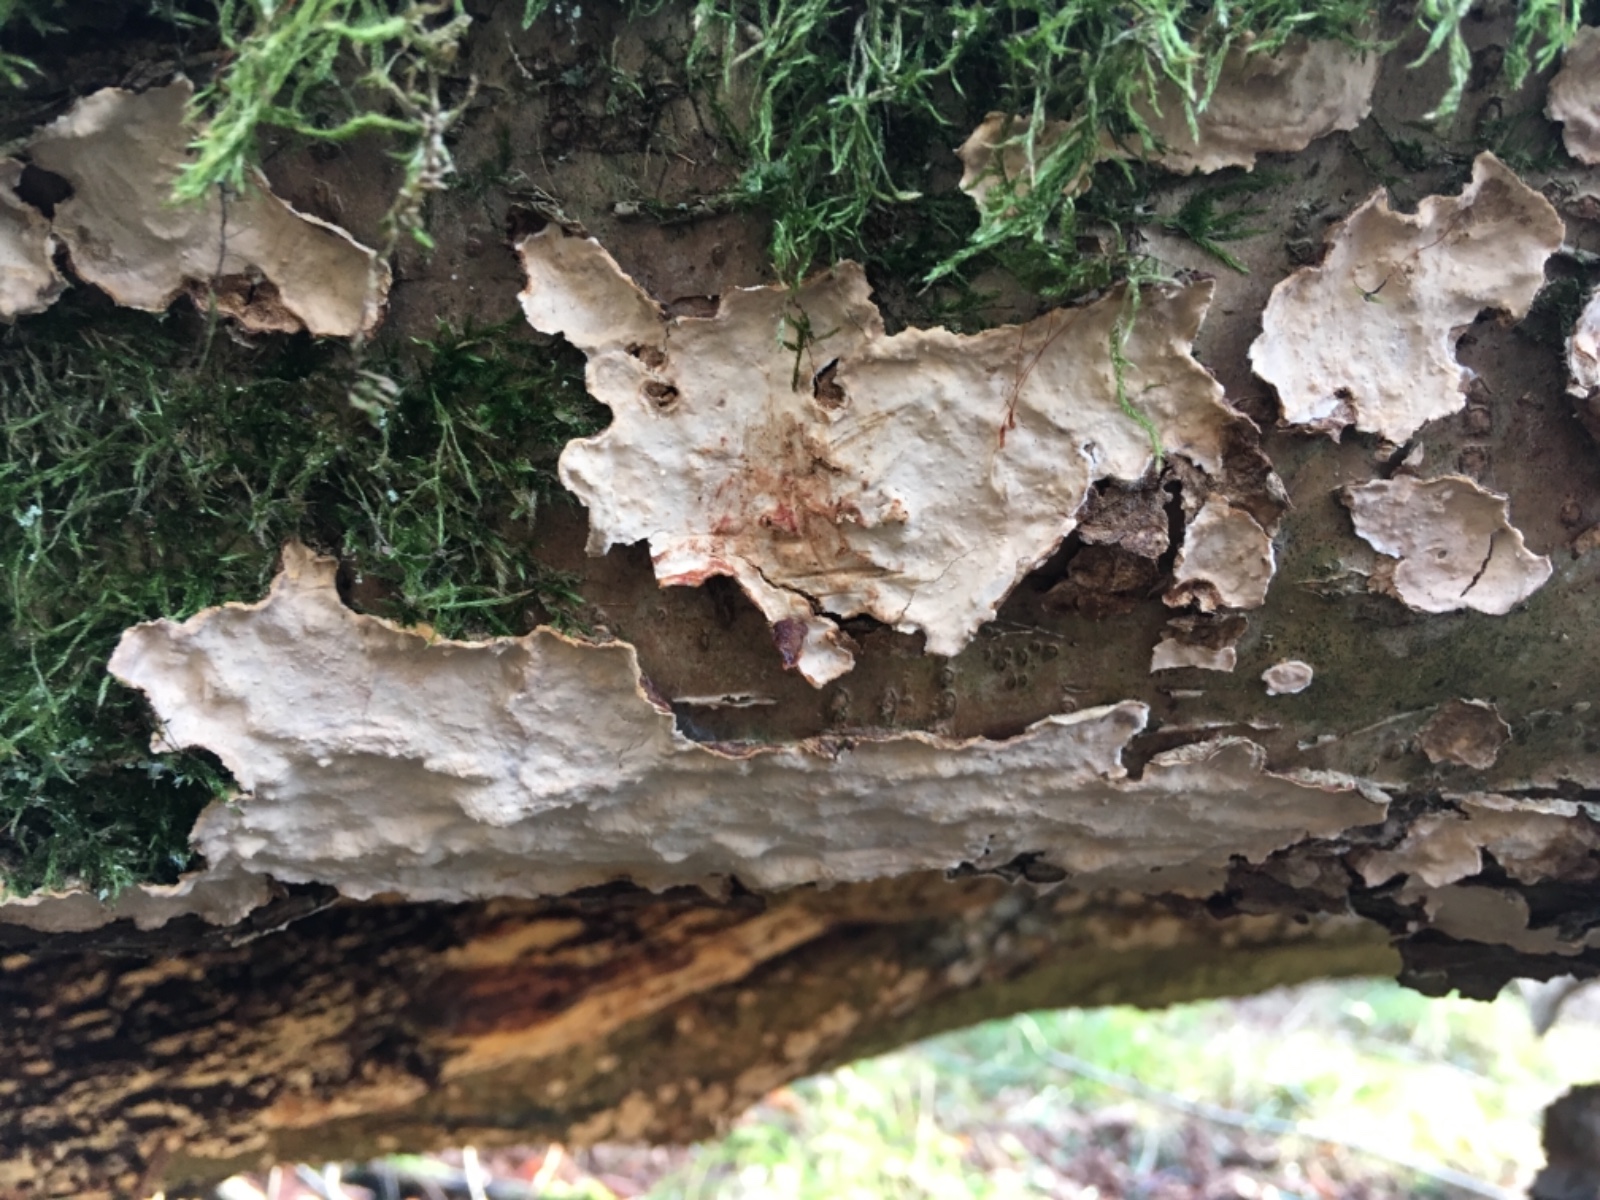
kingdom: Fungi
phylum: Basidiomycota
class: Agaricomycetes
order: Russulales
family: Stereaceae
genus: Stereum
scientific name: Stereum rugosum
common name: rynket lædersvamp
